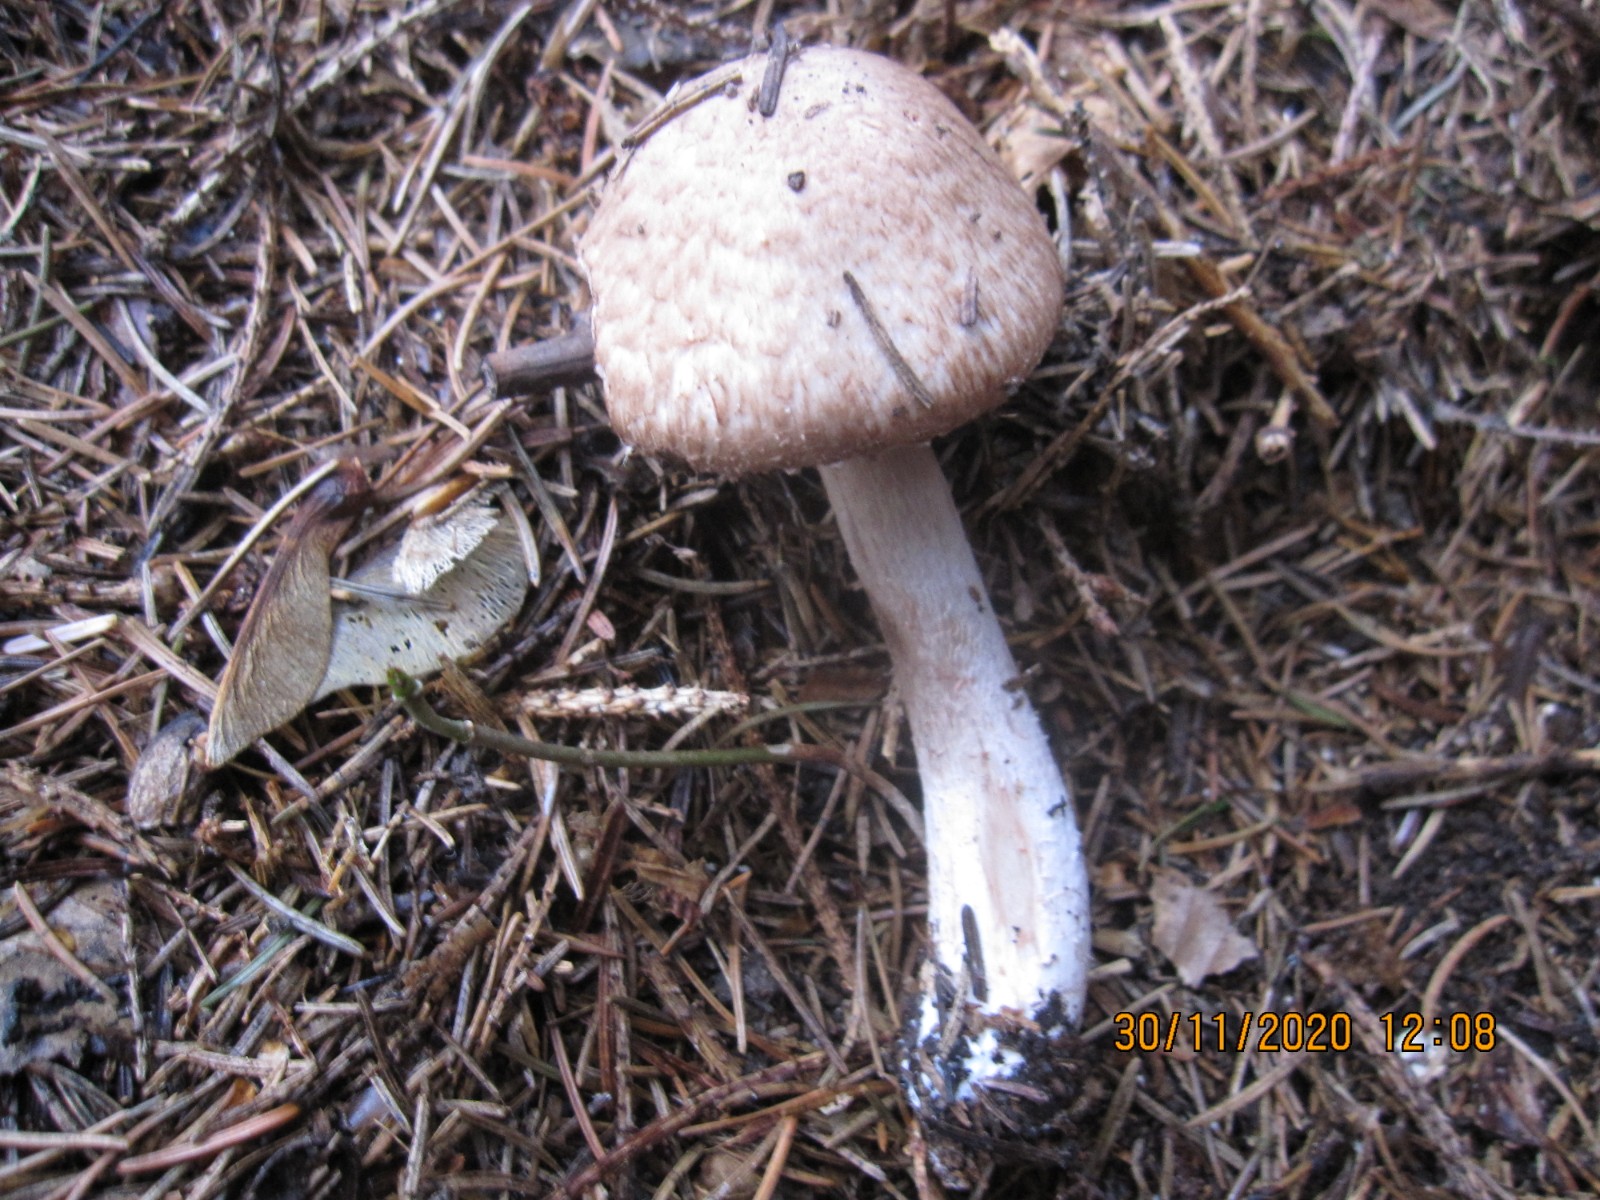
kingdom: Fungi
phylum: Basidiomycota
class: Agaricomycetes
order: Agaricales
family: Agaricaceae
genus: Agaricus
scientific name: Agaricus sylvaticus
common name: lille blod-champignon
